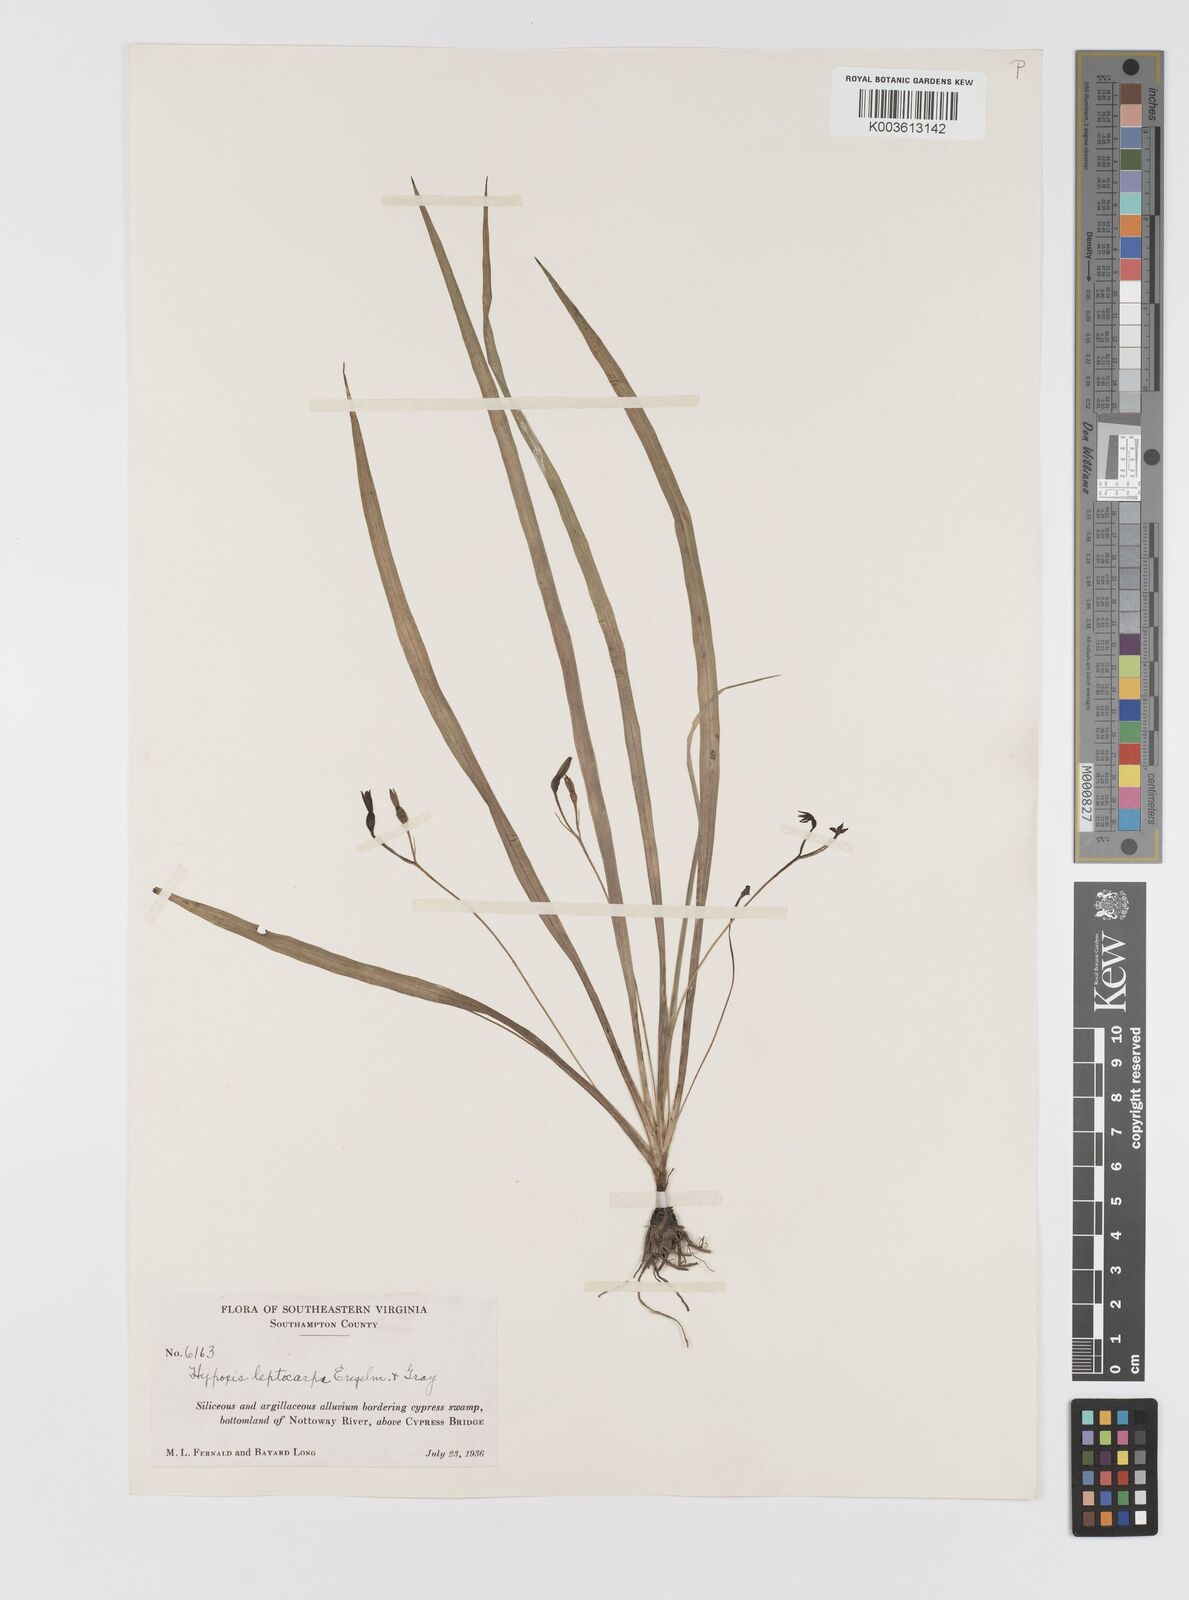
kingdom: Plantae
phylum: Tracheophyta
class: Liliopsida
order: Asparagales
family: Hypoxidaceae
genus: Hypoxis
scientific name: Hypoxis curtissii
